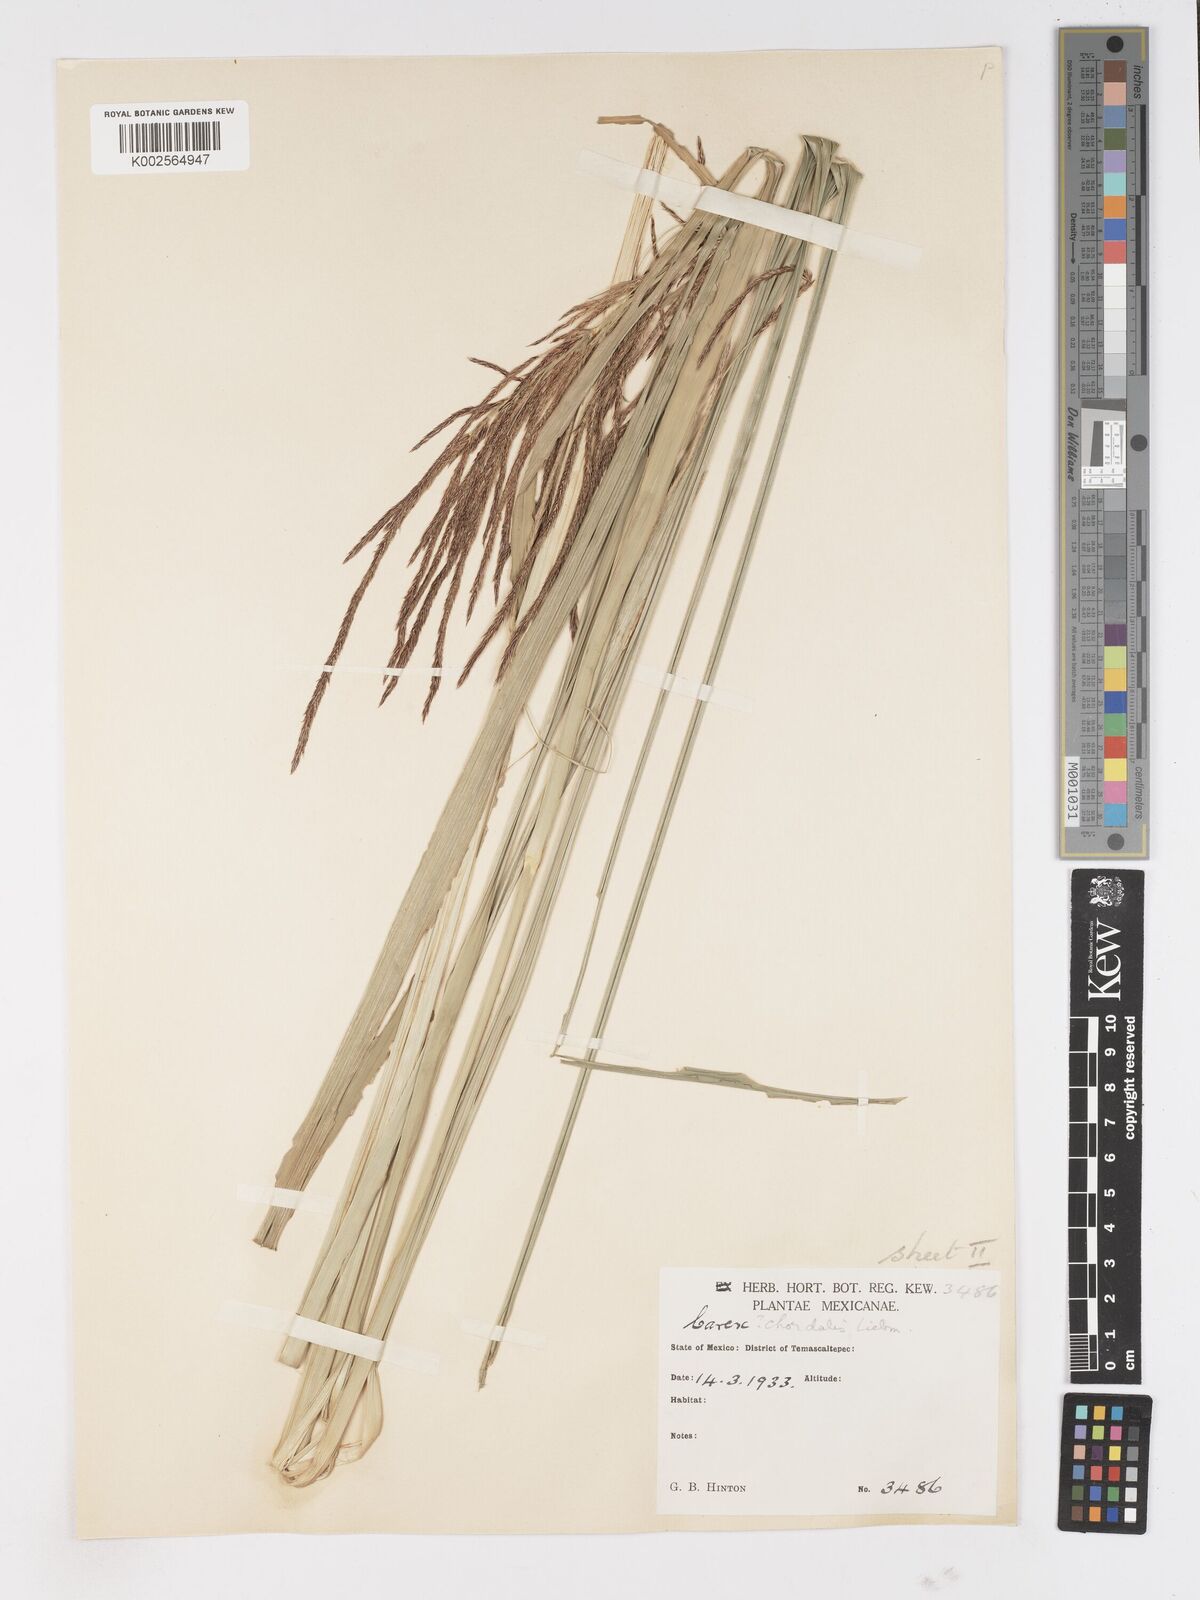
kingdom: Plantae
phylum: Tracheophyta
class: Liliopsida
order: Poales
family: Cyperaceae
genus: Carex
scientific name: Carex chordalis
